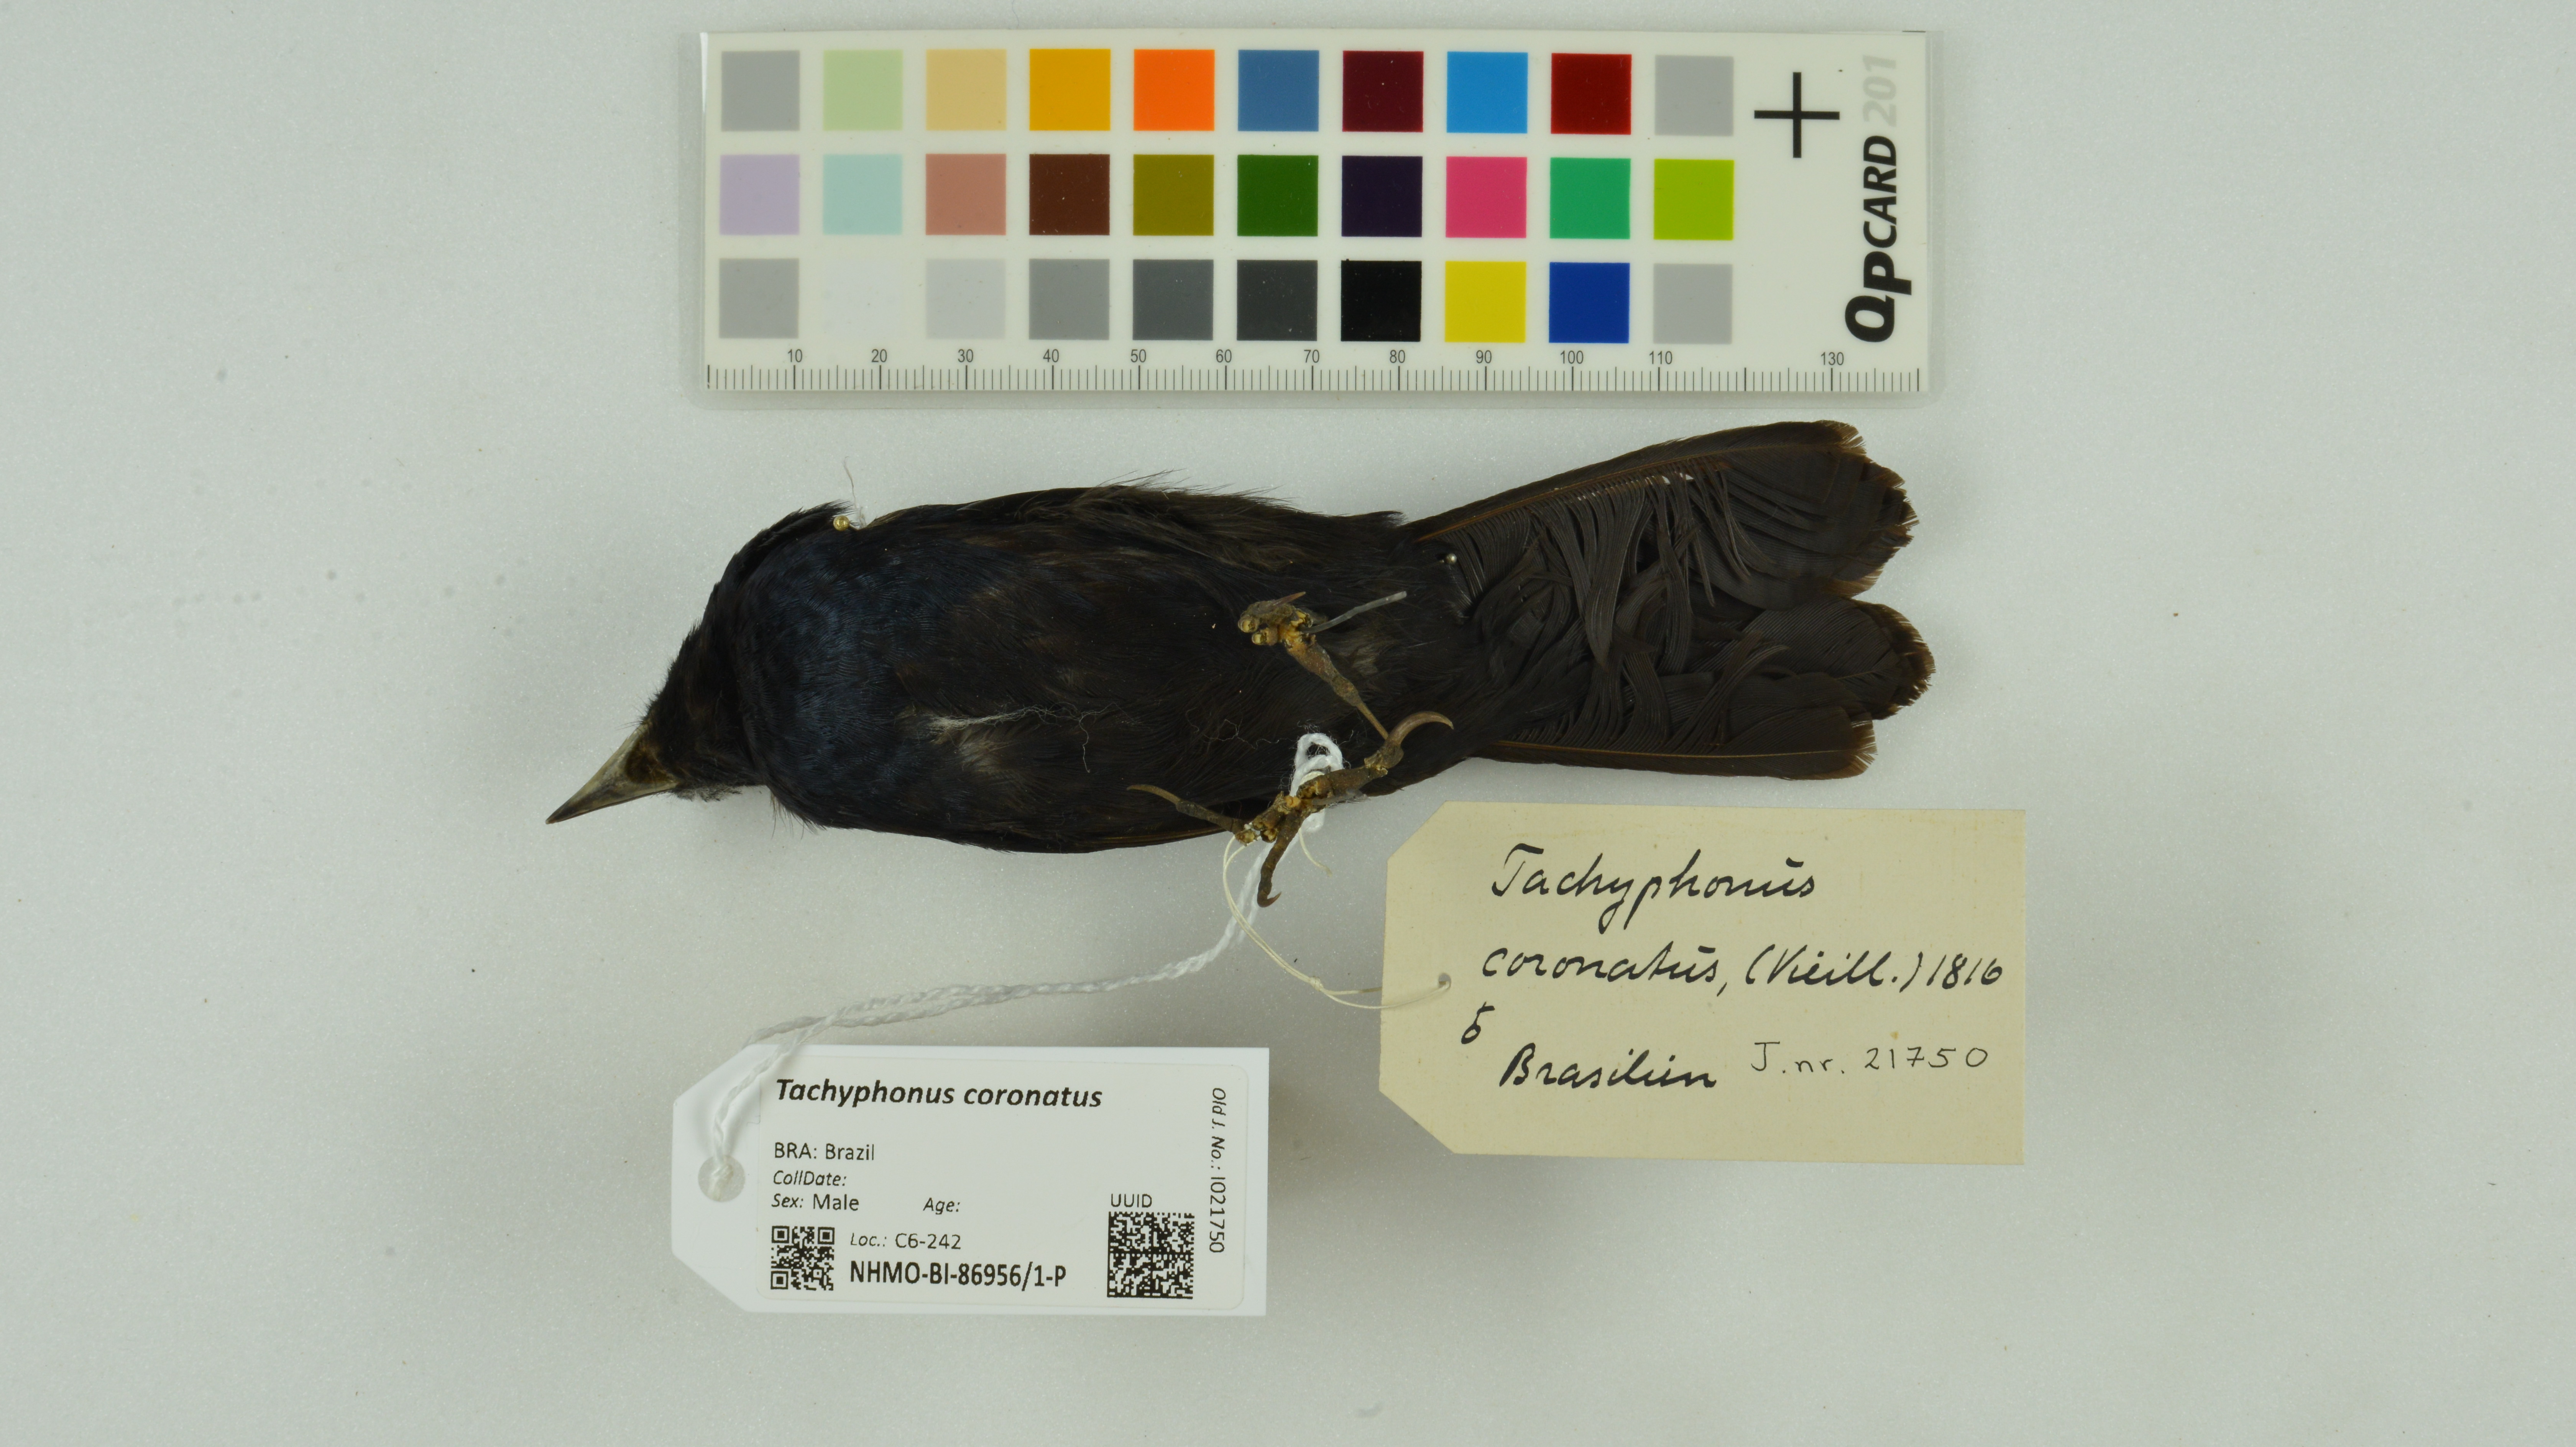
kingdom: Animalia
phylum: Chordata
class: Aves
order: Passeriformes
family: Thraupidae
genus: Tachyphonus
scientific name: Tachyphonus coronatus
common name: Ruby-crowned tanager
